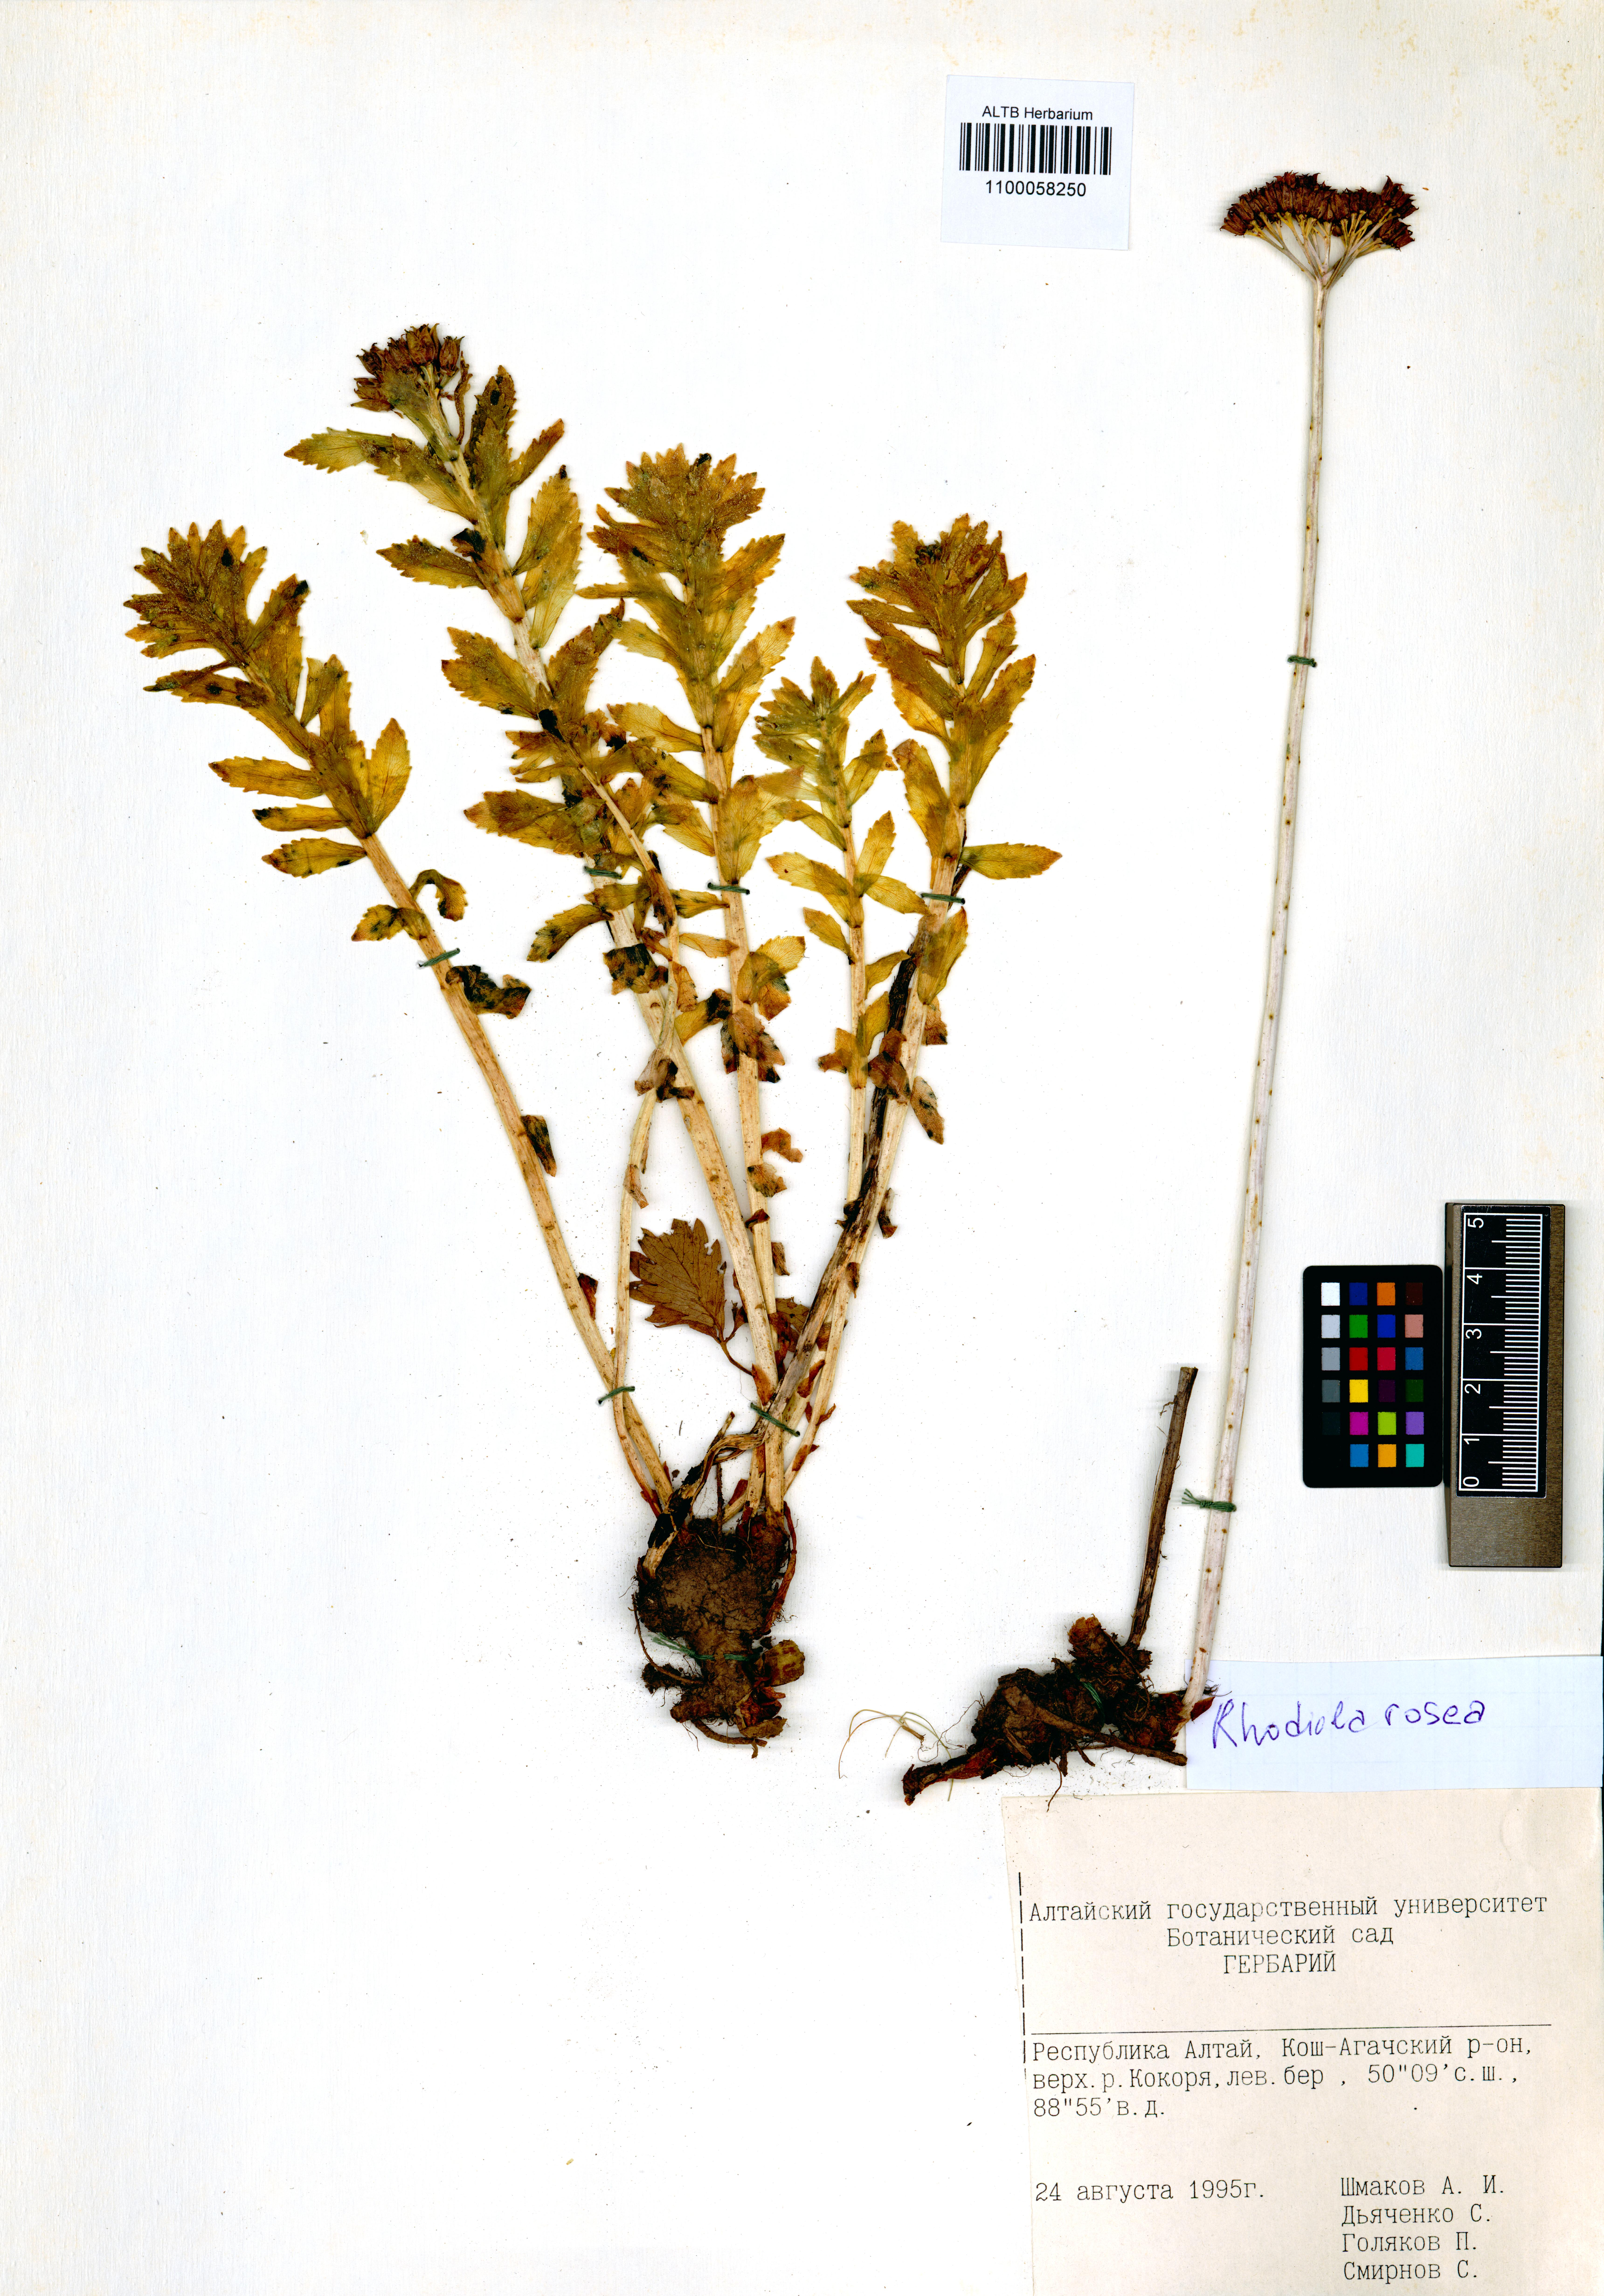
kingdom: Plantae
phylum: Tracheophyta
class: Magnoliopsida
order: Saxifragales
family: Crassulaceae
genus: Rhodiola
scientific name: Rhodiola rosea
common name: Roseroot
